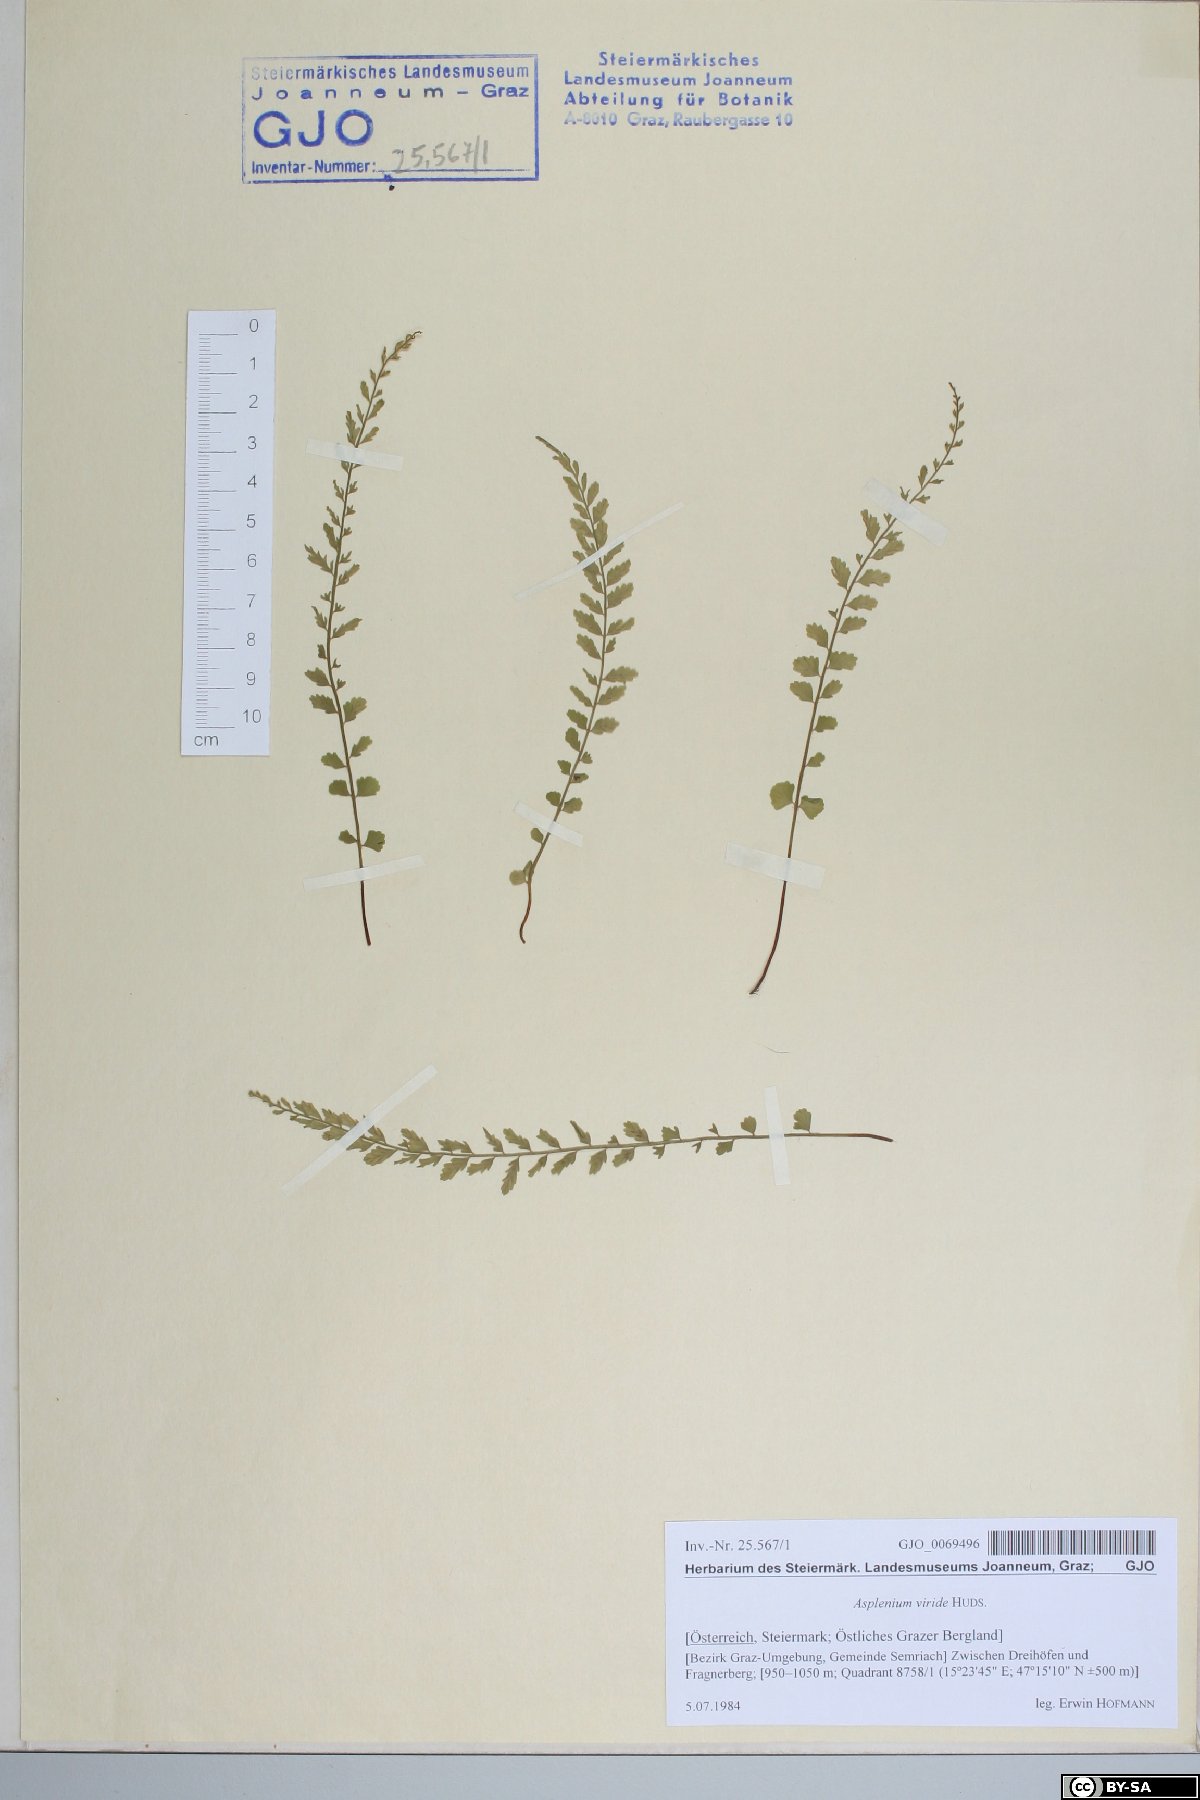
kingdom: Plantae
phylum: Tracheophyta
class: Polypodiopsida
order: Polypodiales
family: Aspleniaceae
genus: Asplenium
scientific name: Asplenium viride
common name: Green spleenwort
